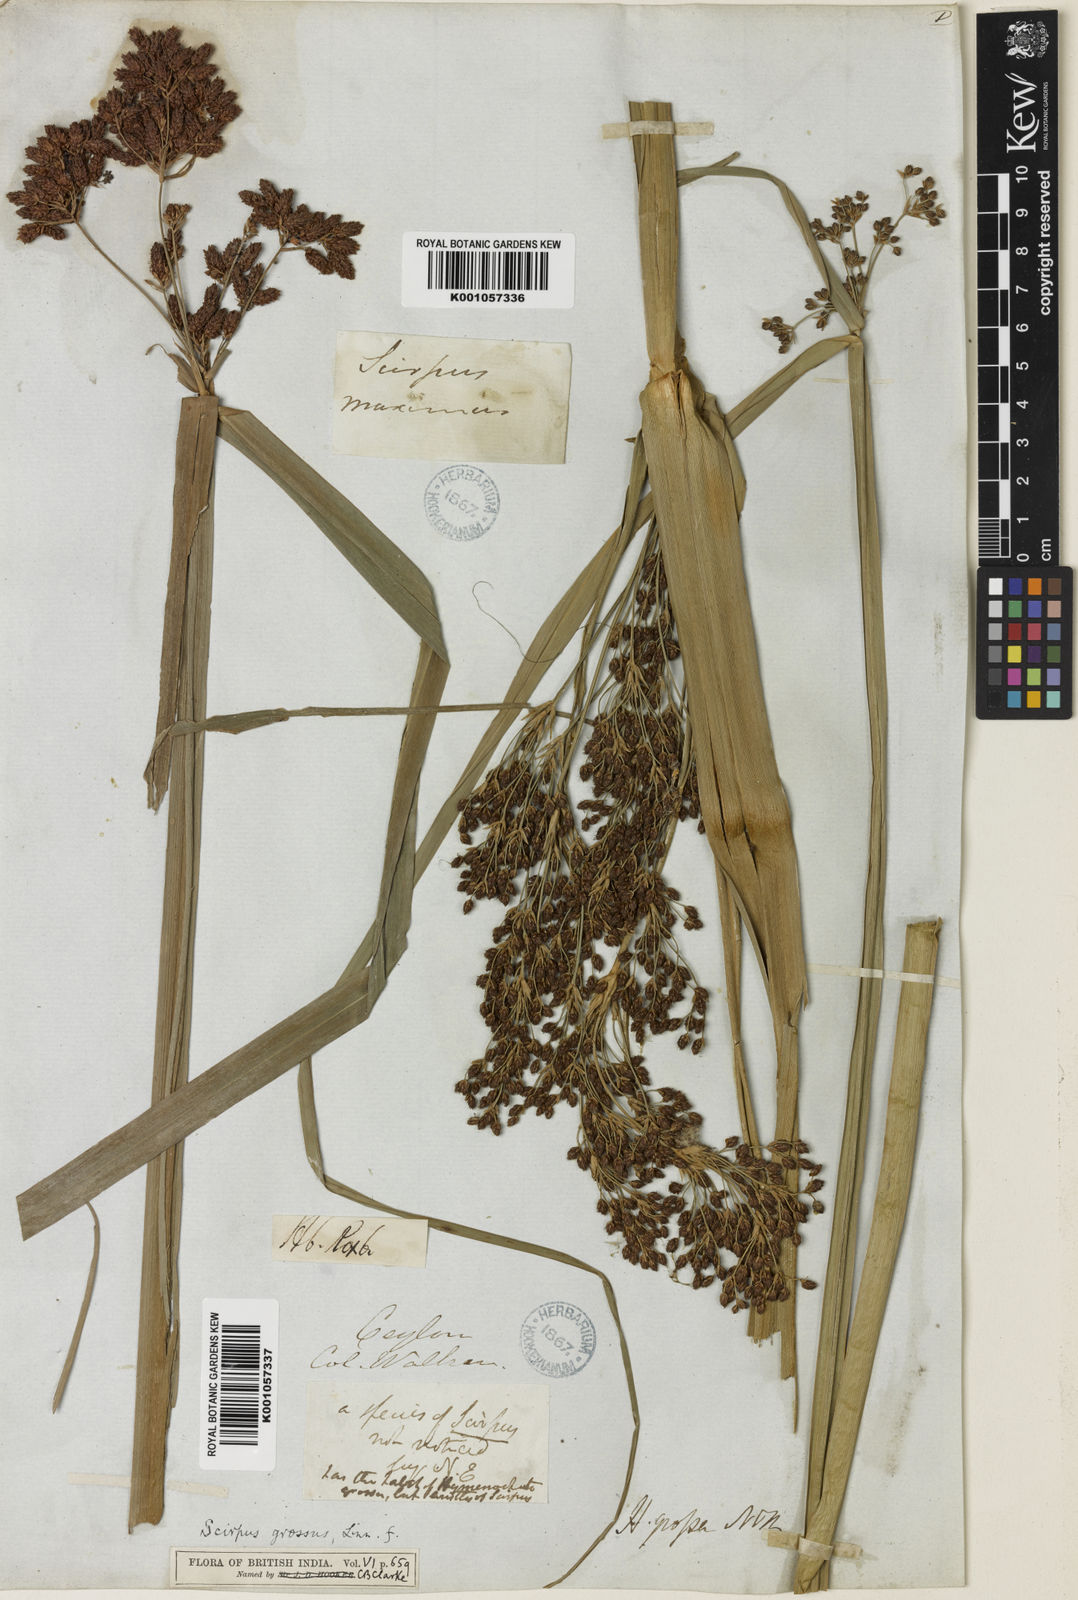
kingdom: Plantae
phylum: Tracheophyta
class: Liliopsida
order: Poales
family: Cyperaceae
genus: Actinoscirpus
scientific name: Actinoscirpus grossus
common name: Giant bur rush
